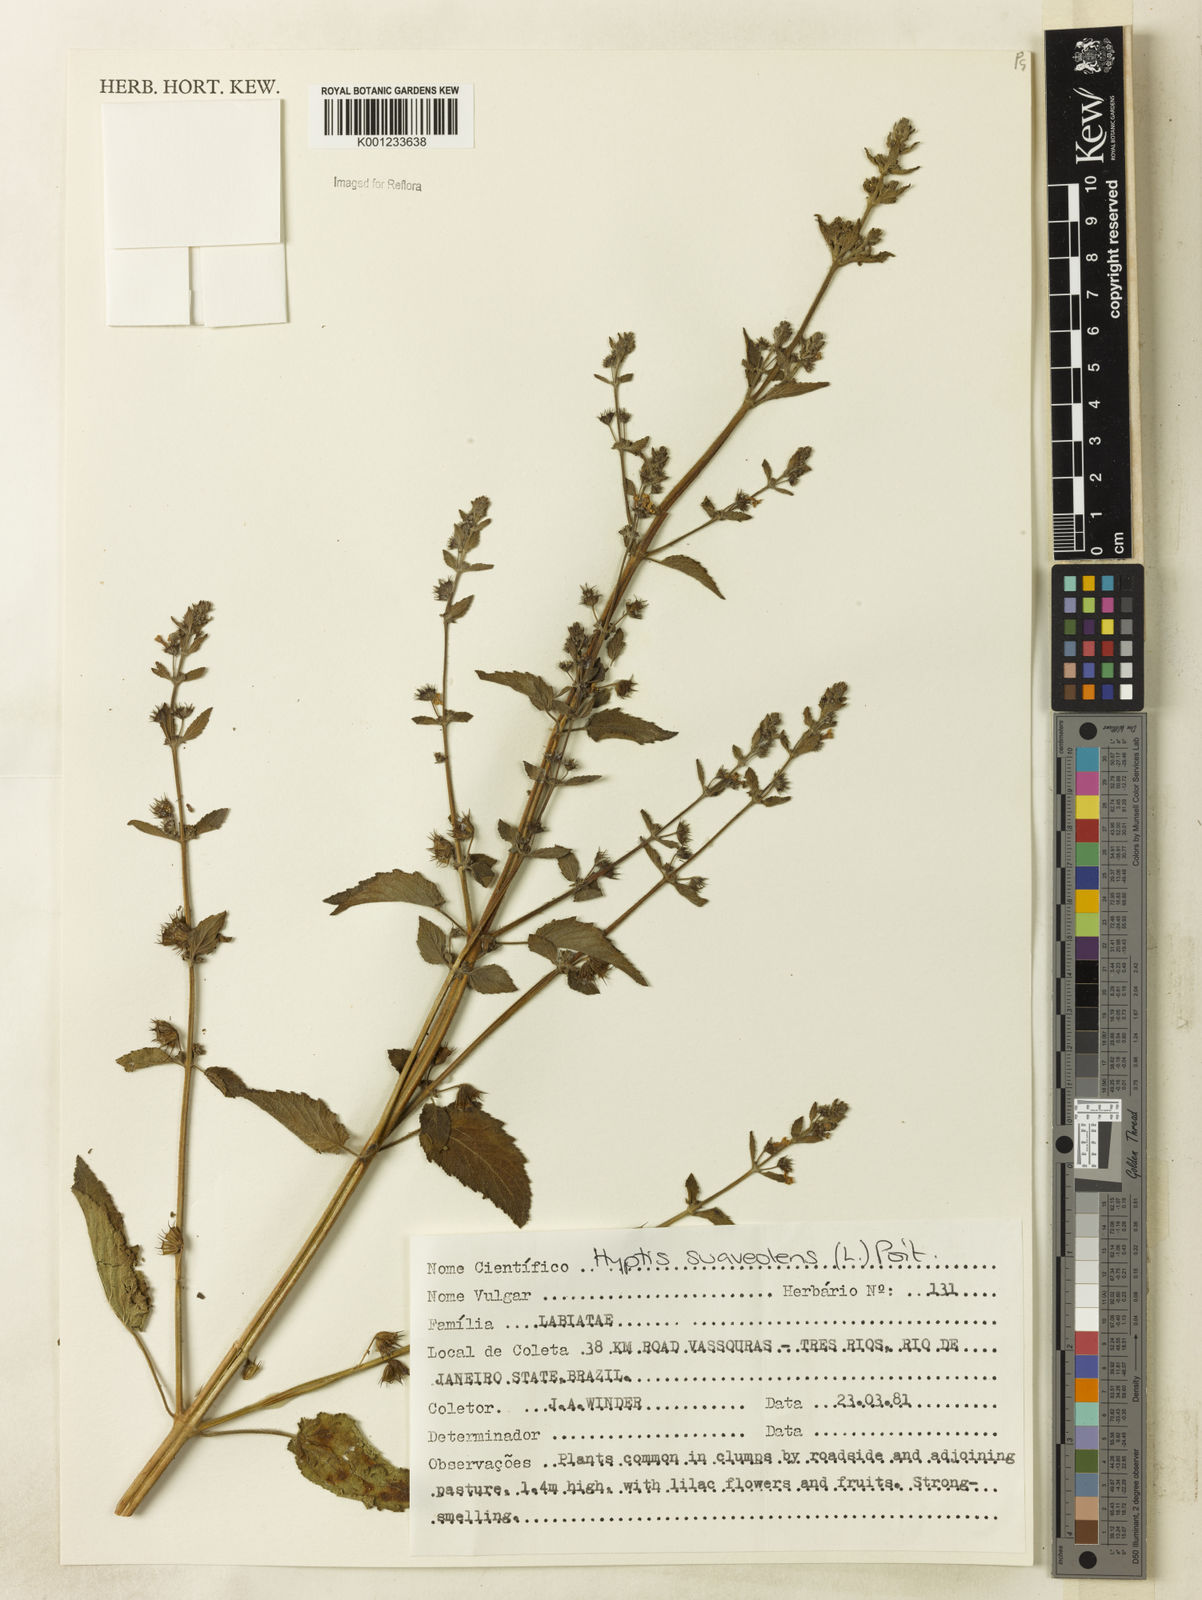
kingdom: Plantae
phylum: Tracheophyta
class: Magnoliopsida
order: Lamiales
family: Lamiaceae
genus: Mesosphaerum
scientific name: Mesosphaerum suaveolens
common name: Pignut
